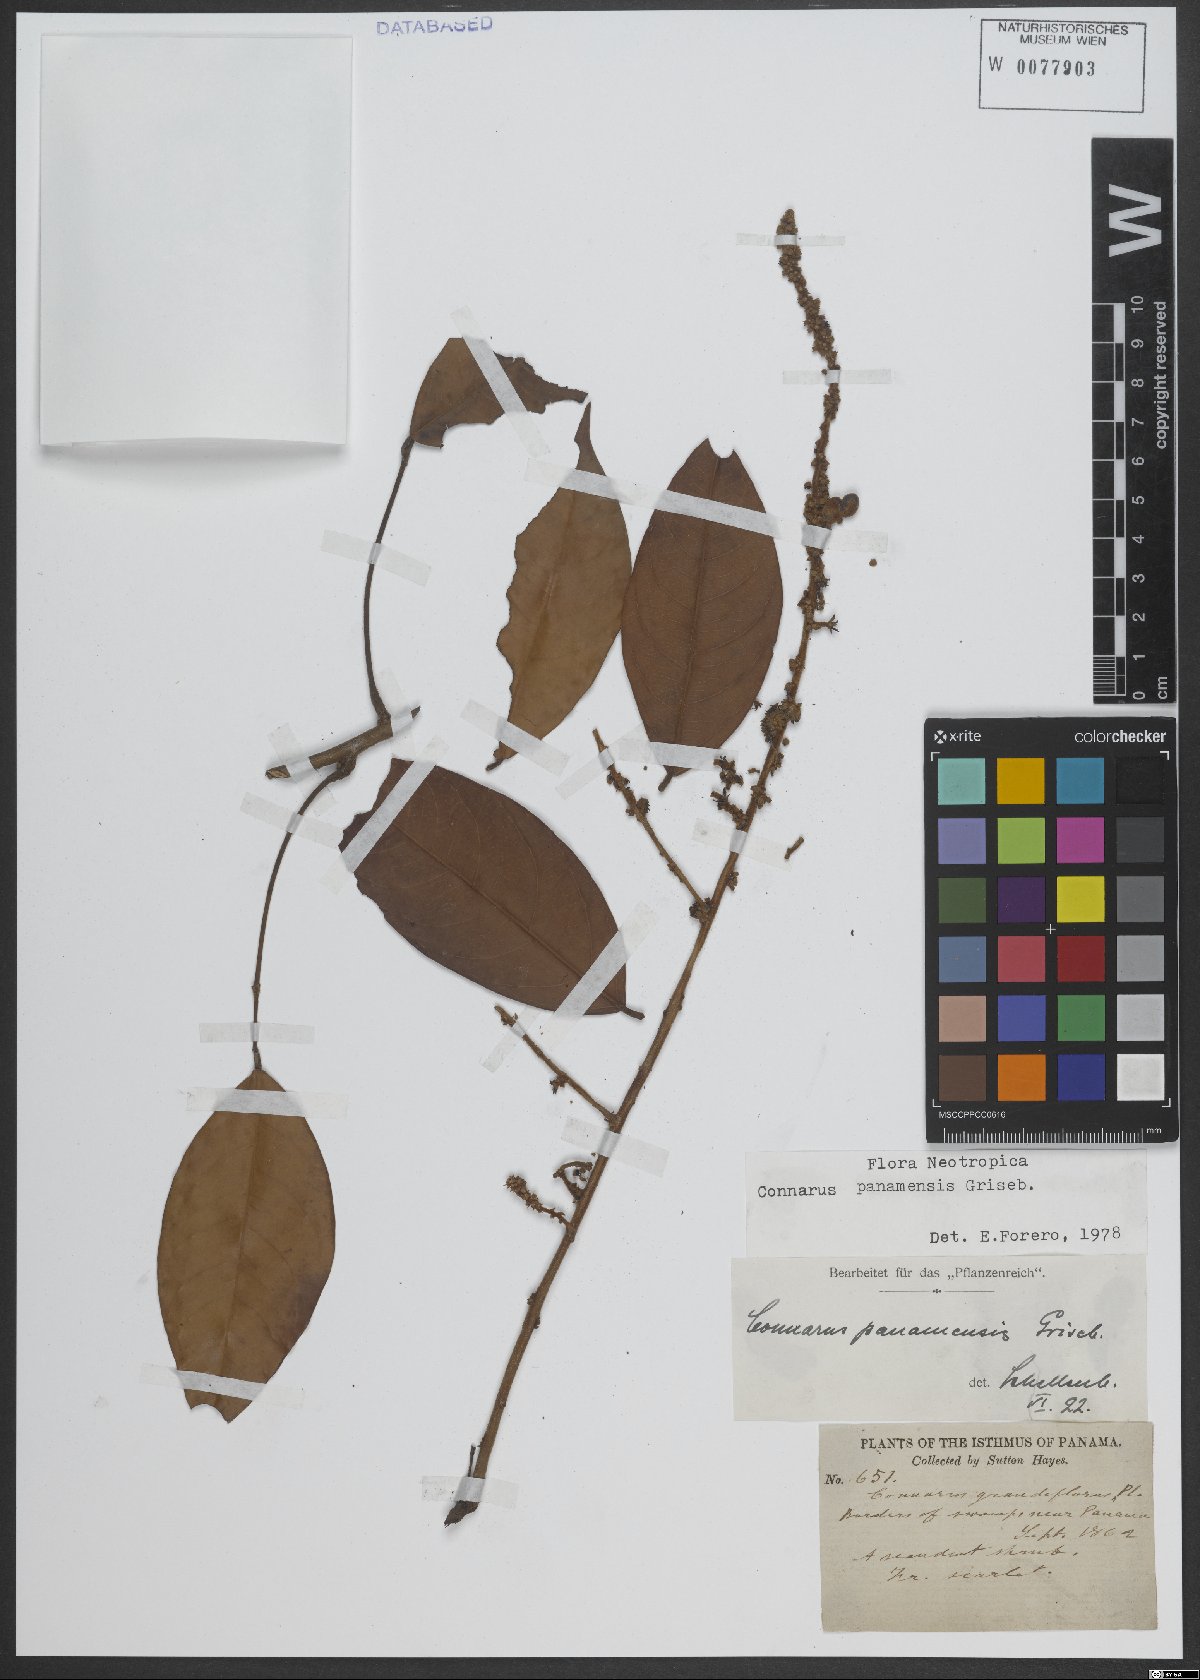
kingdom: Plantae
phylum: Tracheophyta
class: Magnoliopsida
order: Oxalidales
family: Connaraceae
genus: Connarus
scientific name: Connarus panamensis
